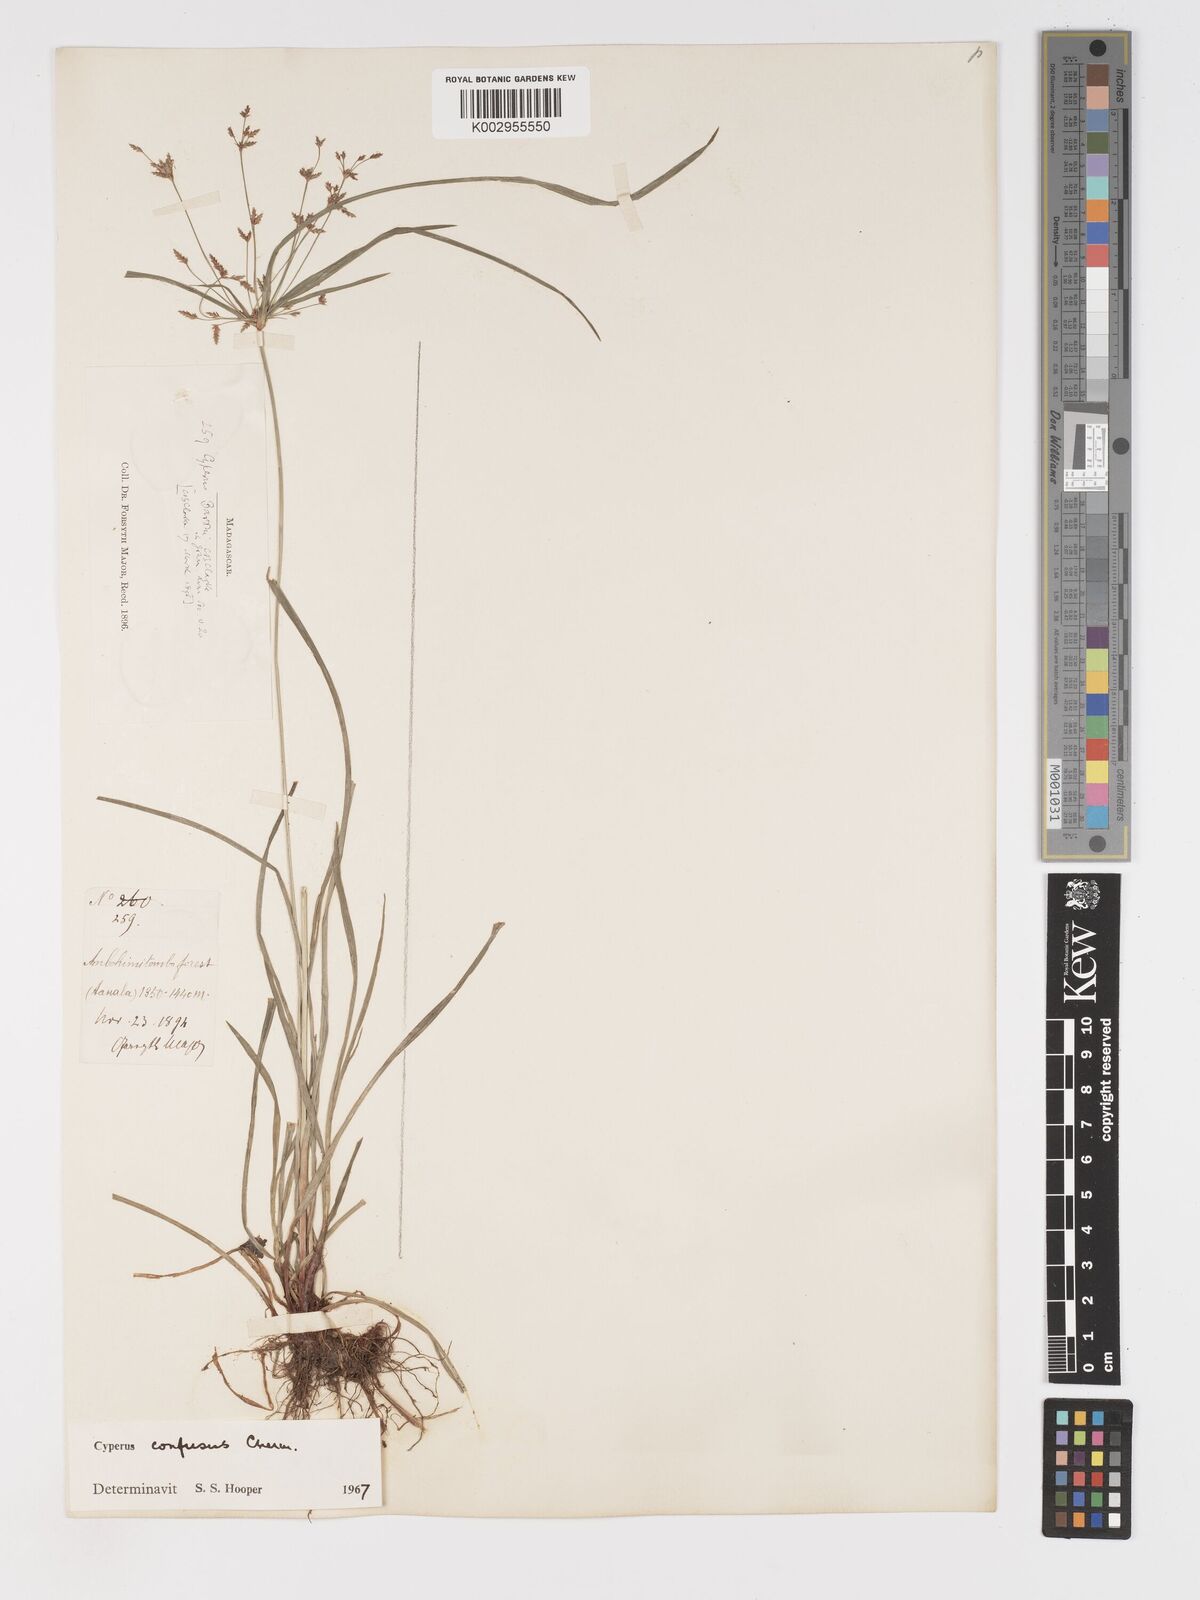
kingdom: Plantae
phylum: Tracheophyta
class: Liliopsida
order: Poales
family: Cyperaceae
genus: Cyperus
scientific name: Cyperus longifolius
